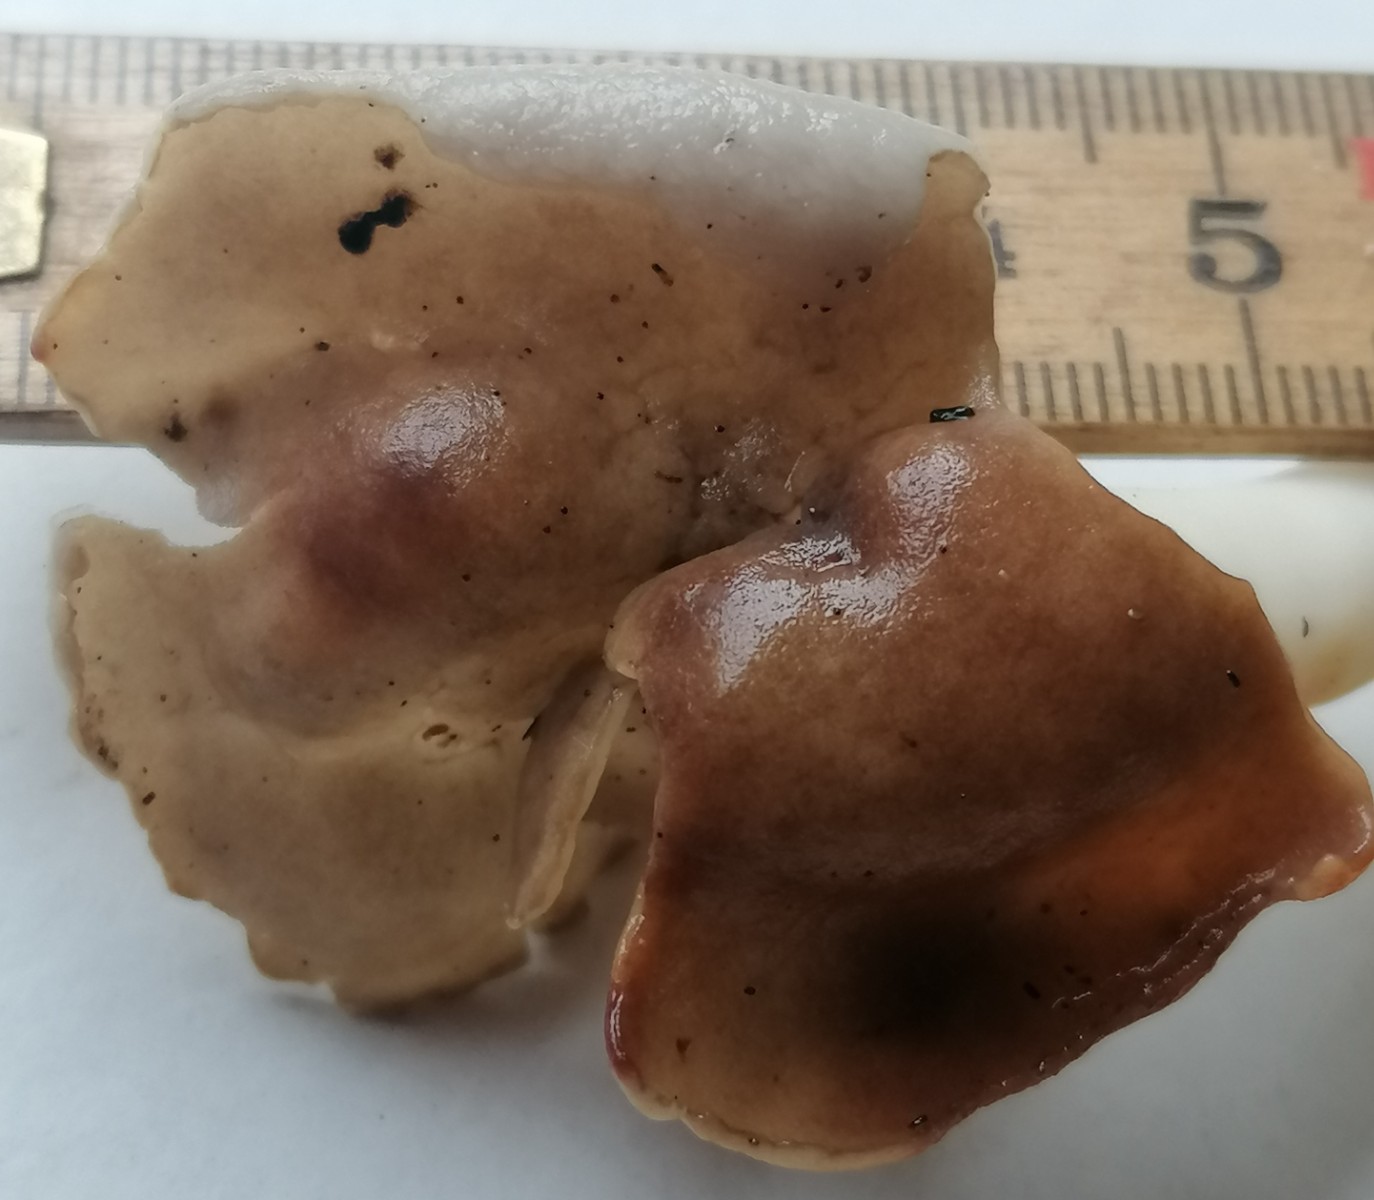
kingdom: Fungi
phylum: Ascomycota
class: Pezizomycetes
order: Pezizales
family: Helvellaceae
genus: Helvella
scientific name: Helvella elastica
